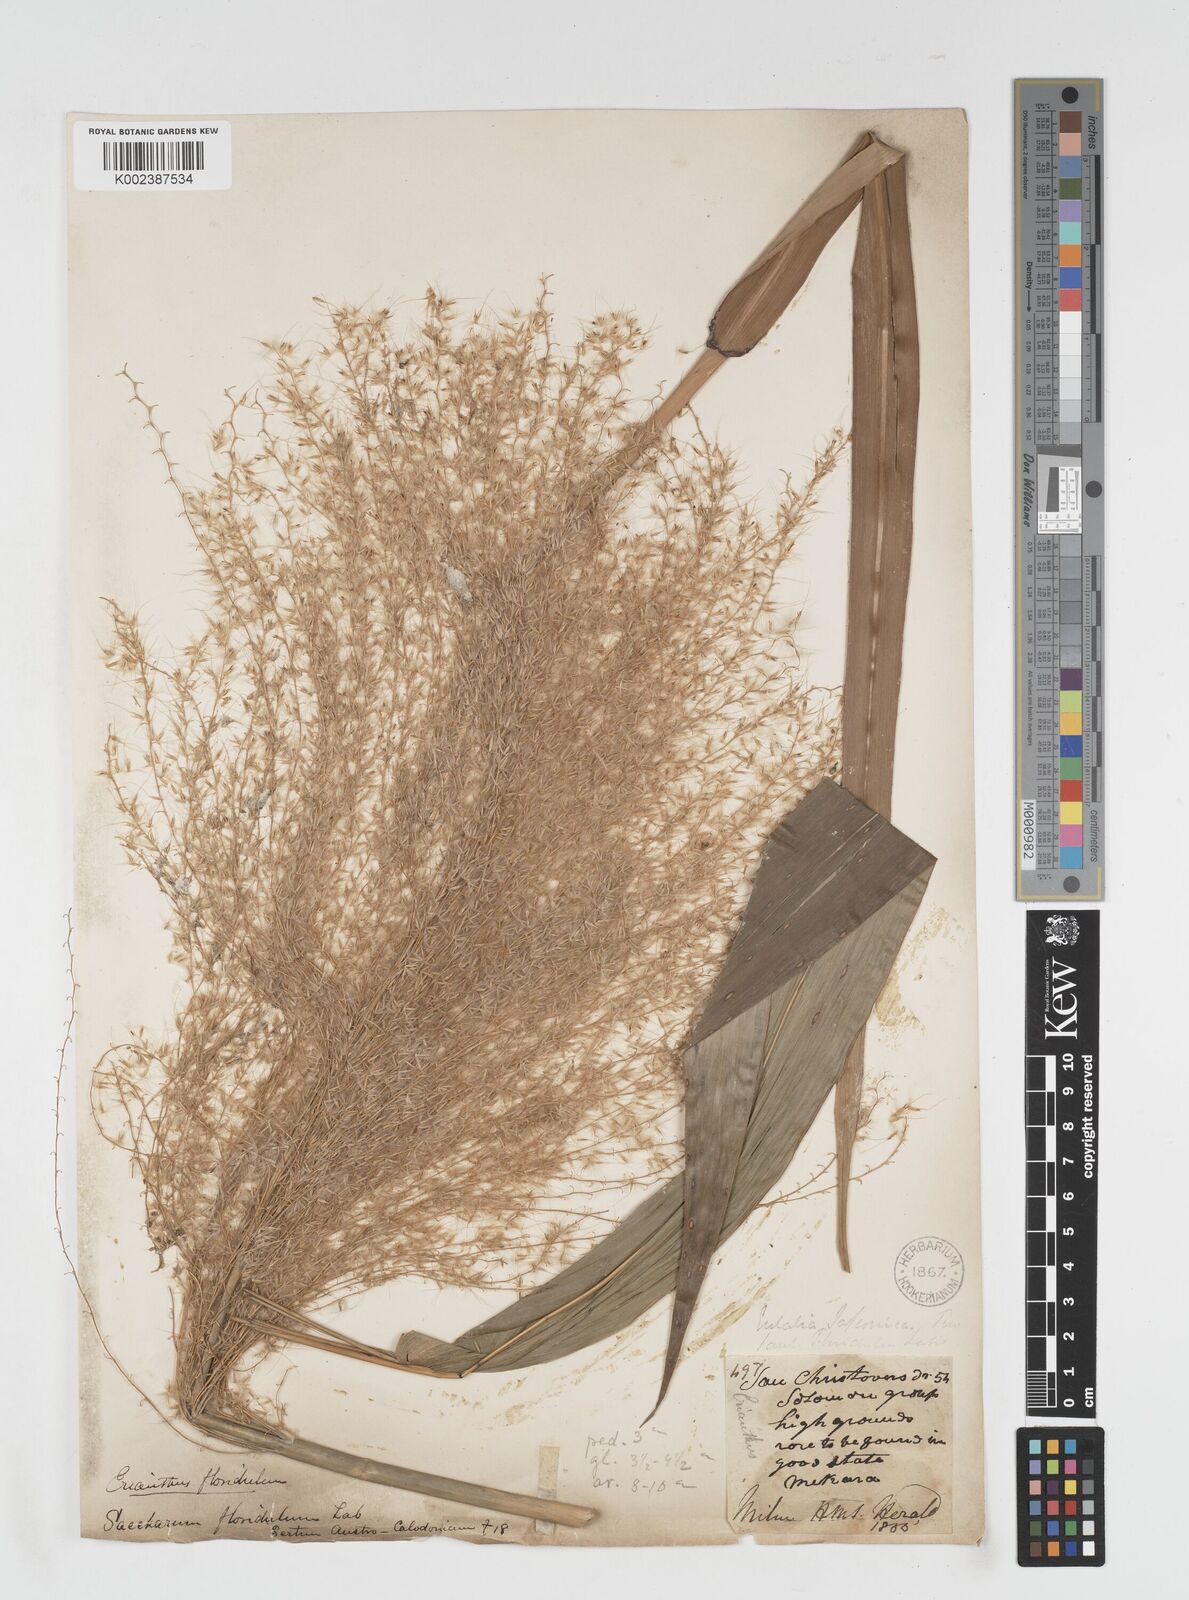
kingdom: Plantae
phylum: Tracheophyta
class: Liliopsida
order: Poales
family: Poaceae
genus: Miscanthus
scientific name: Miscanthus floridulus
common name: Pacific island silvergrass
